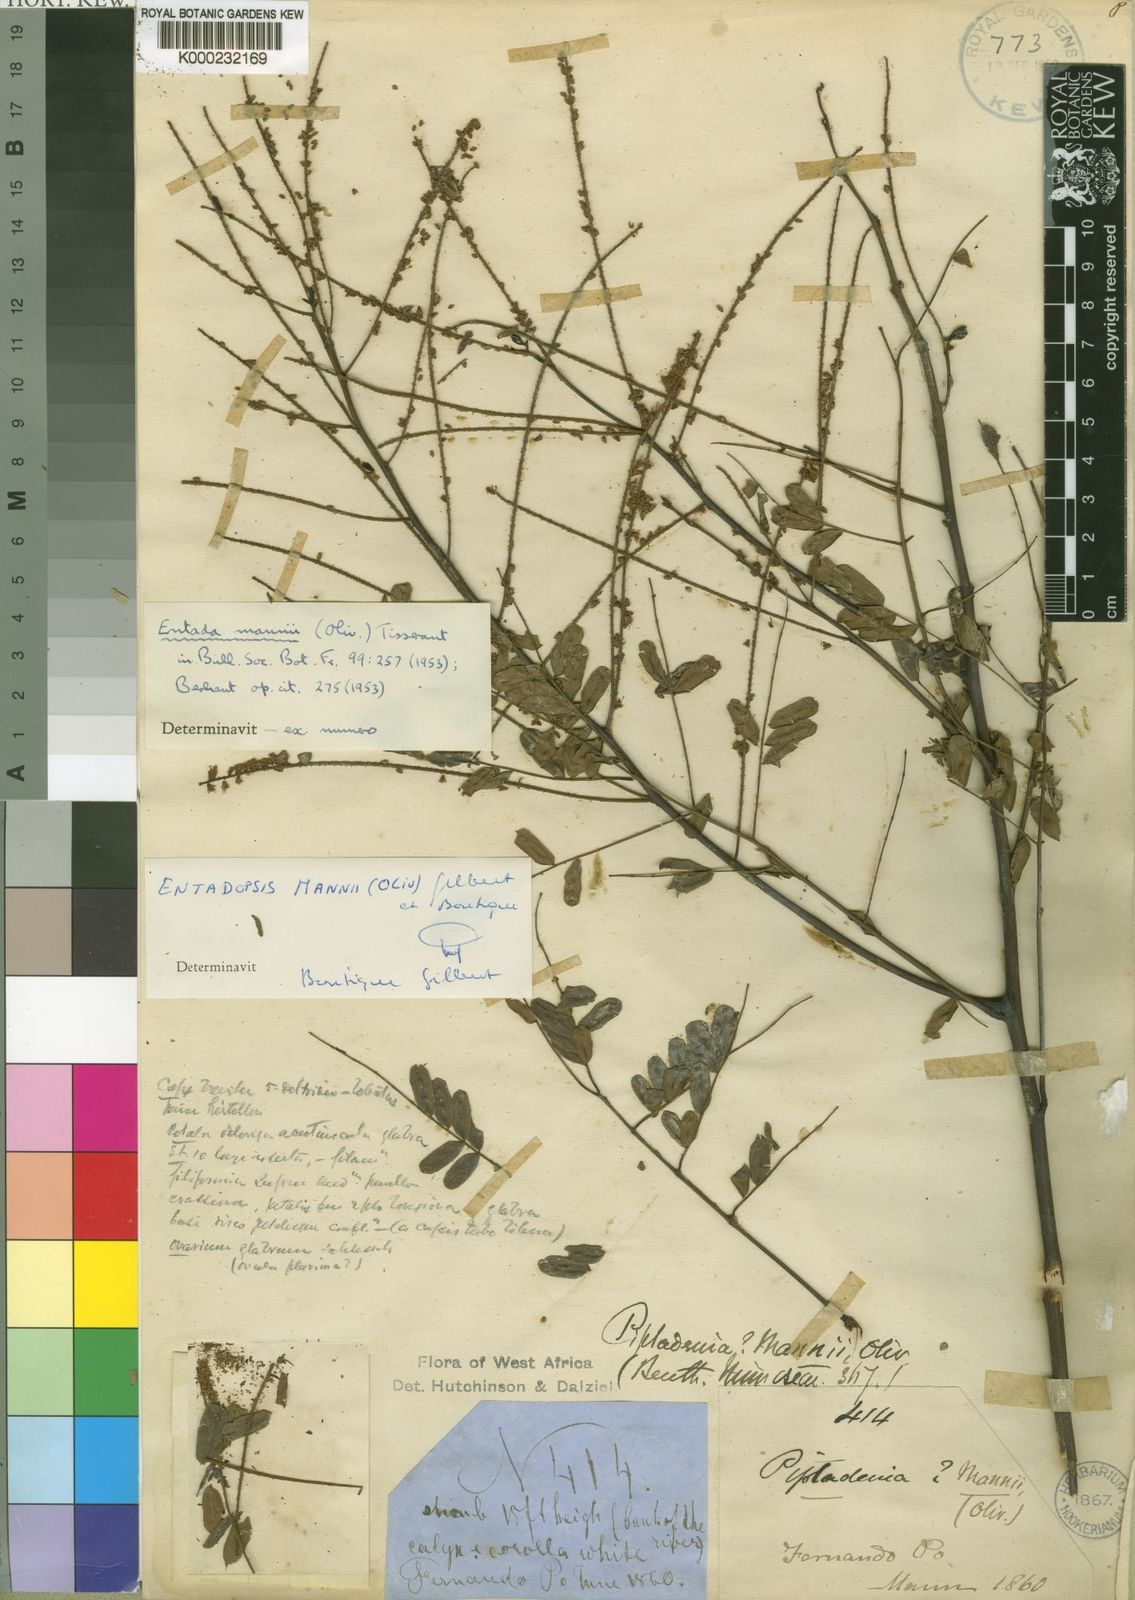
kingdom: Plantae
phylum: Tracheophyta
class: Magnoliopsida
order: Fabales
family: Fabaceae
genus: Entada
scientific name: Entada mannii
